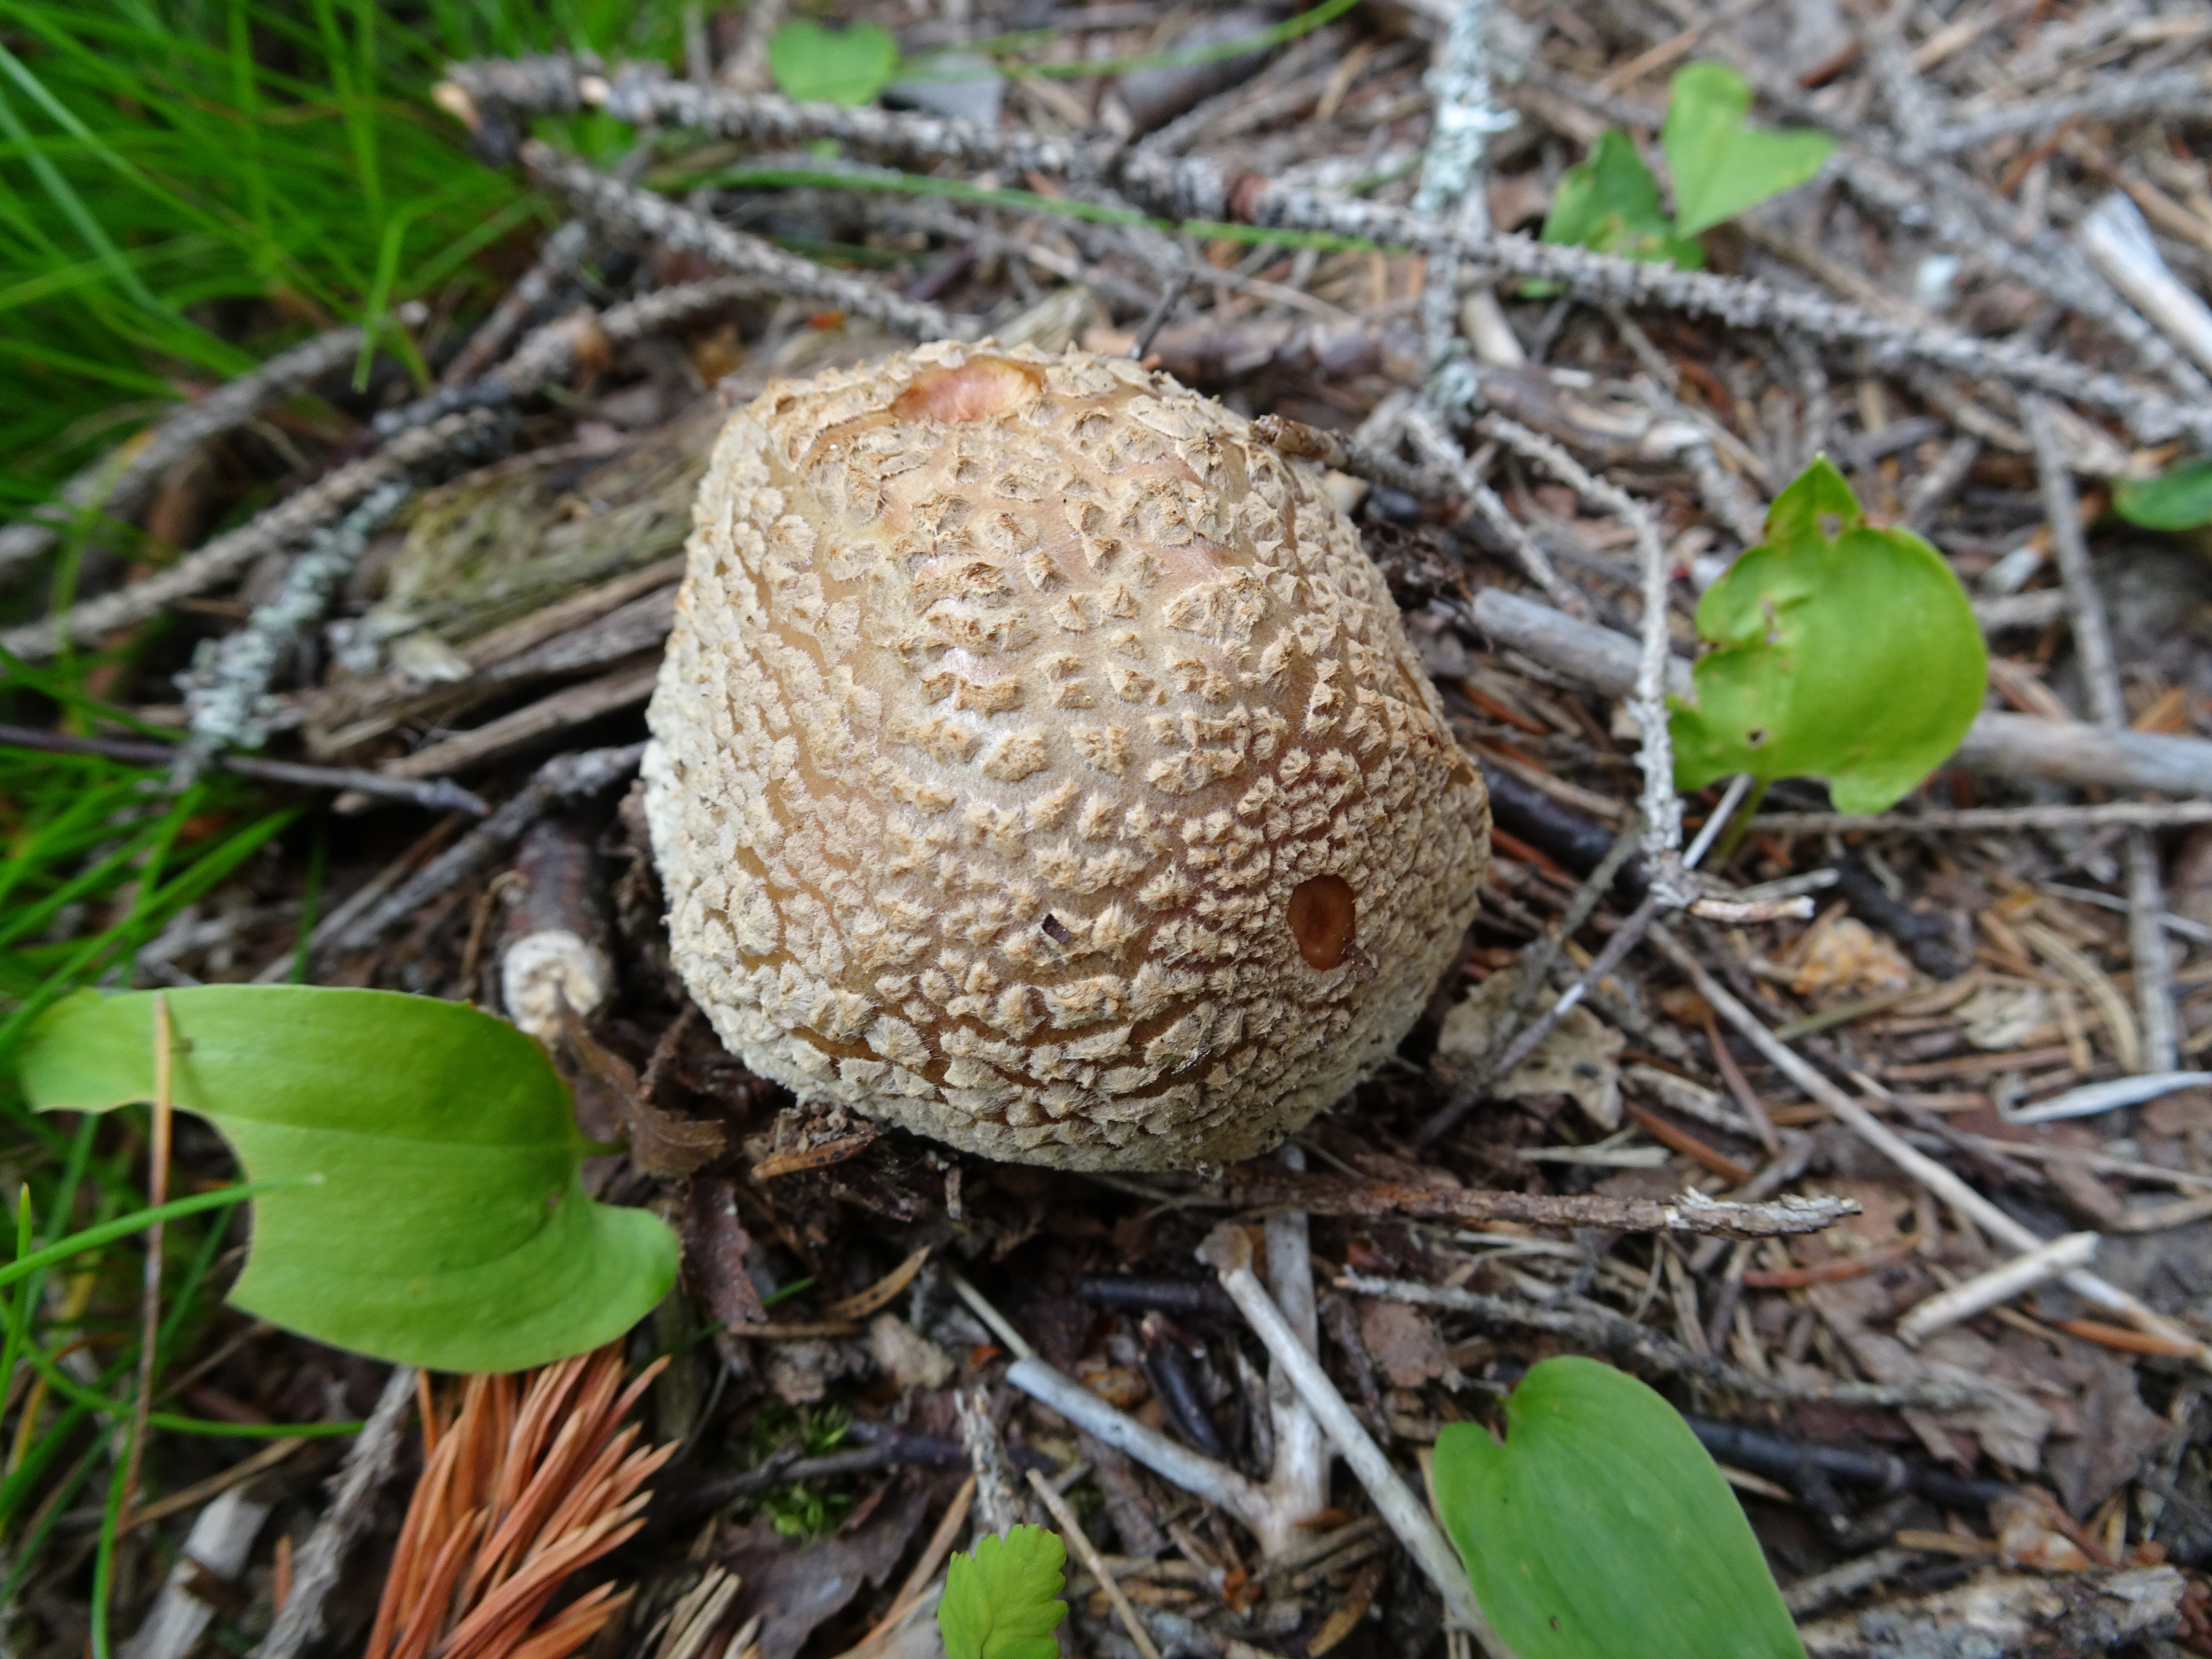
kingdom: Fungi
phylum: Basidiomycota
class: Agaricomycetes
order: Agaricales
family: Amanitaceae
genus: Amanita
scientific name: Amanita rubescens
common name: Blusher
